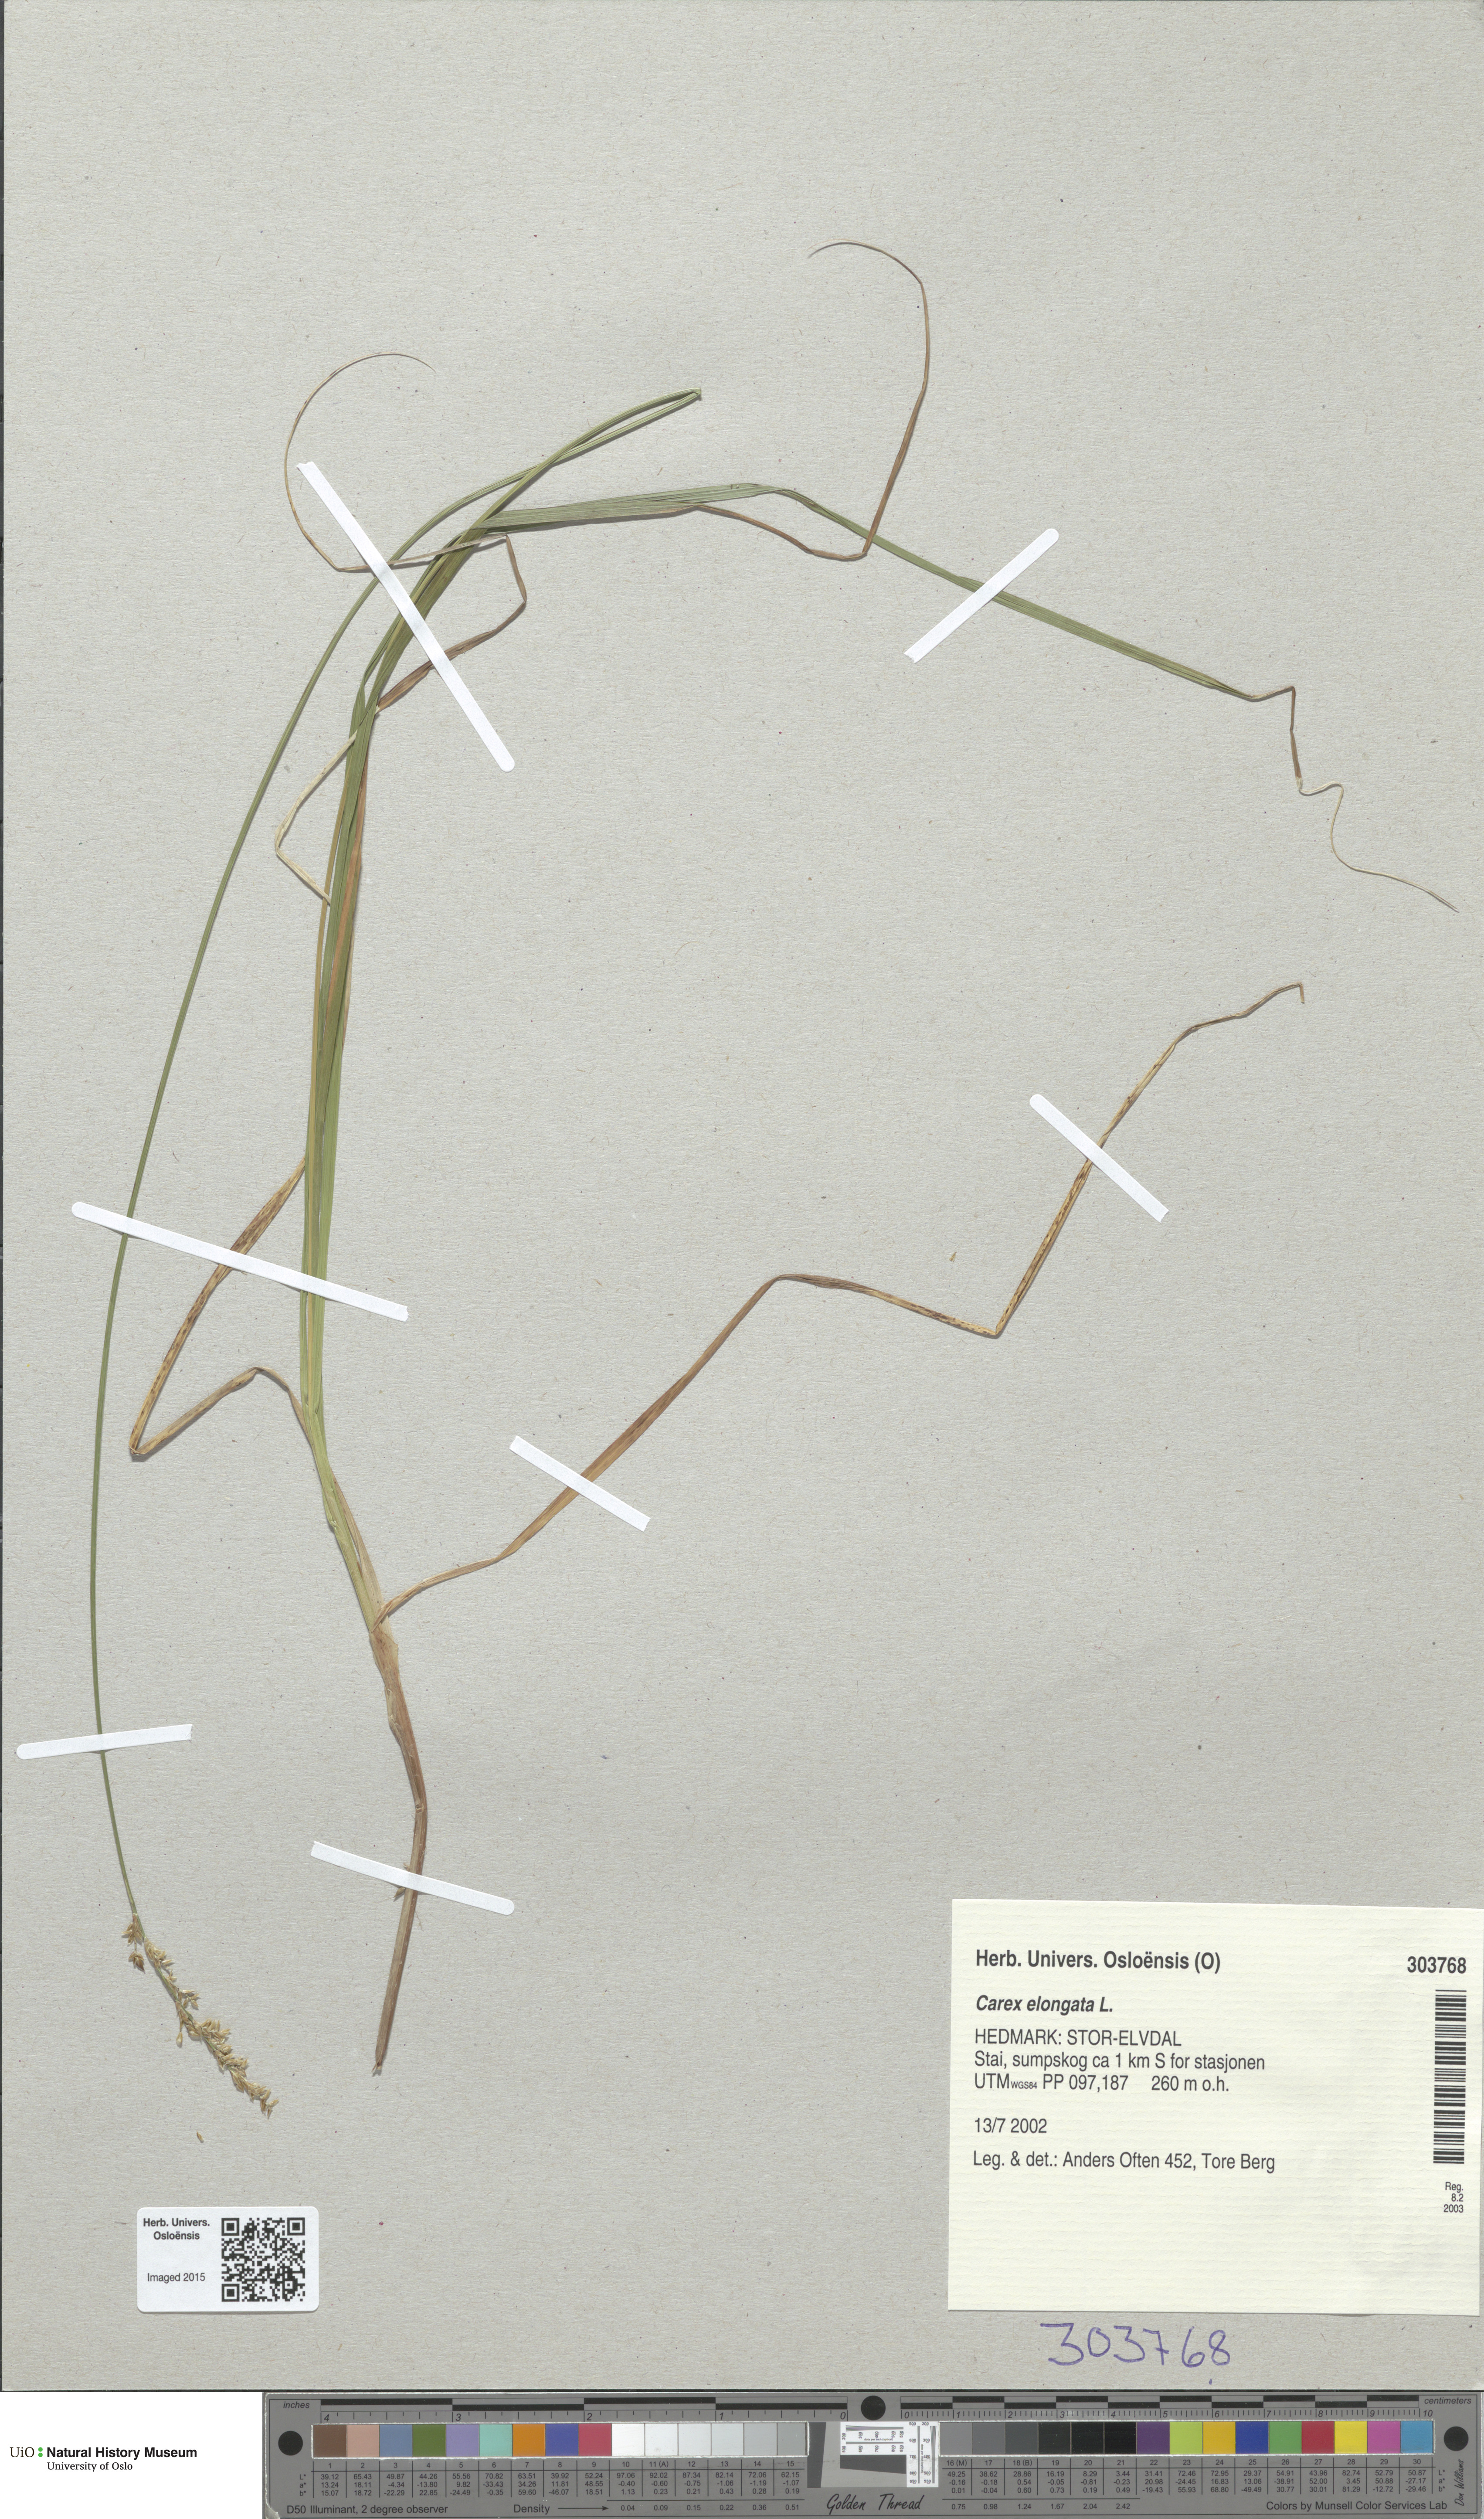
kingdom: Plantae
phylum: Tracheophyta
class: Liliopsida
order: Poales
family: Cyperaceae
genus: Carex
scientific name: Carex elongata
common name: Elongated sedge
